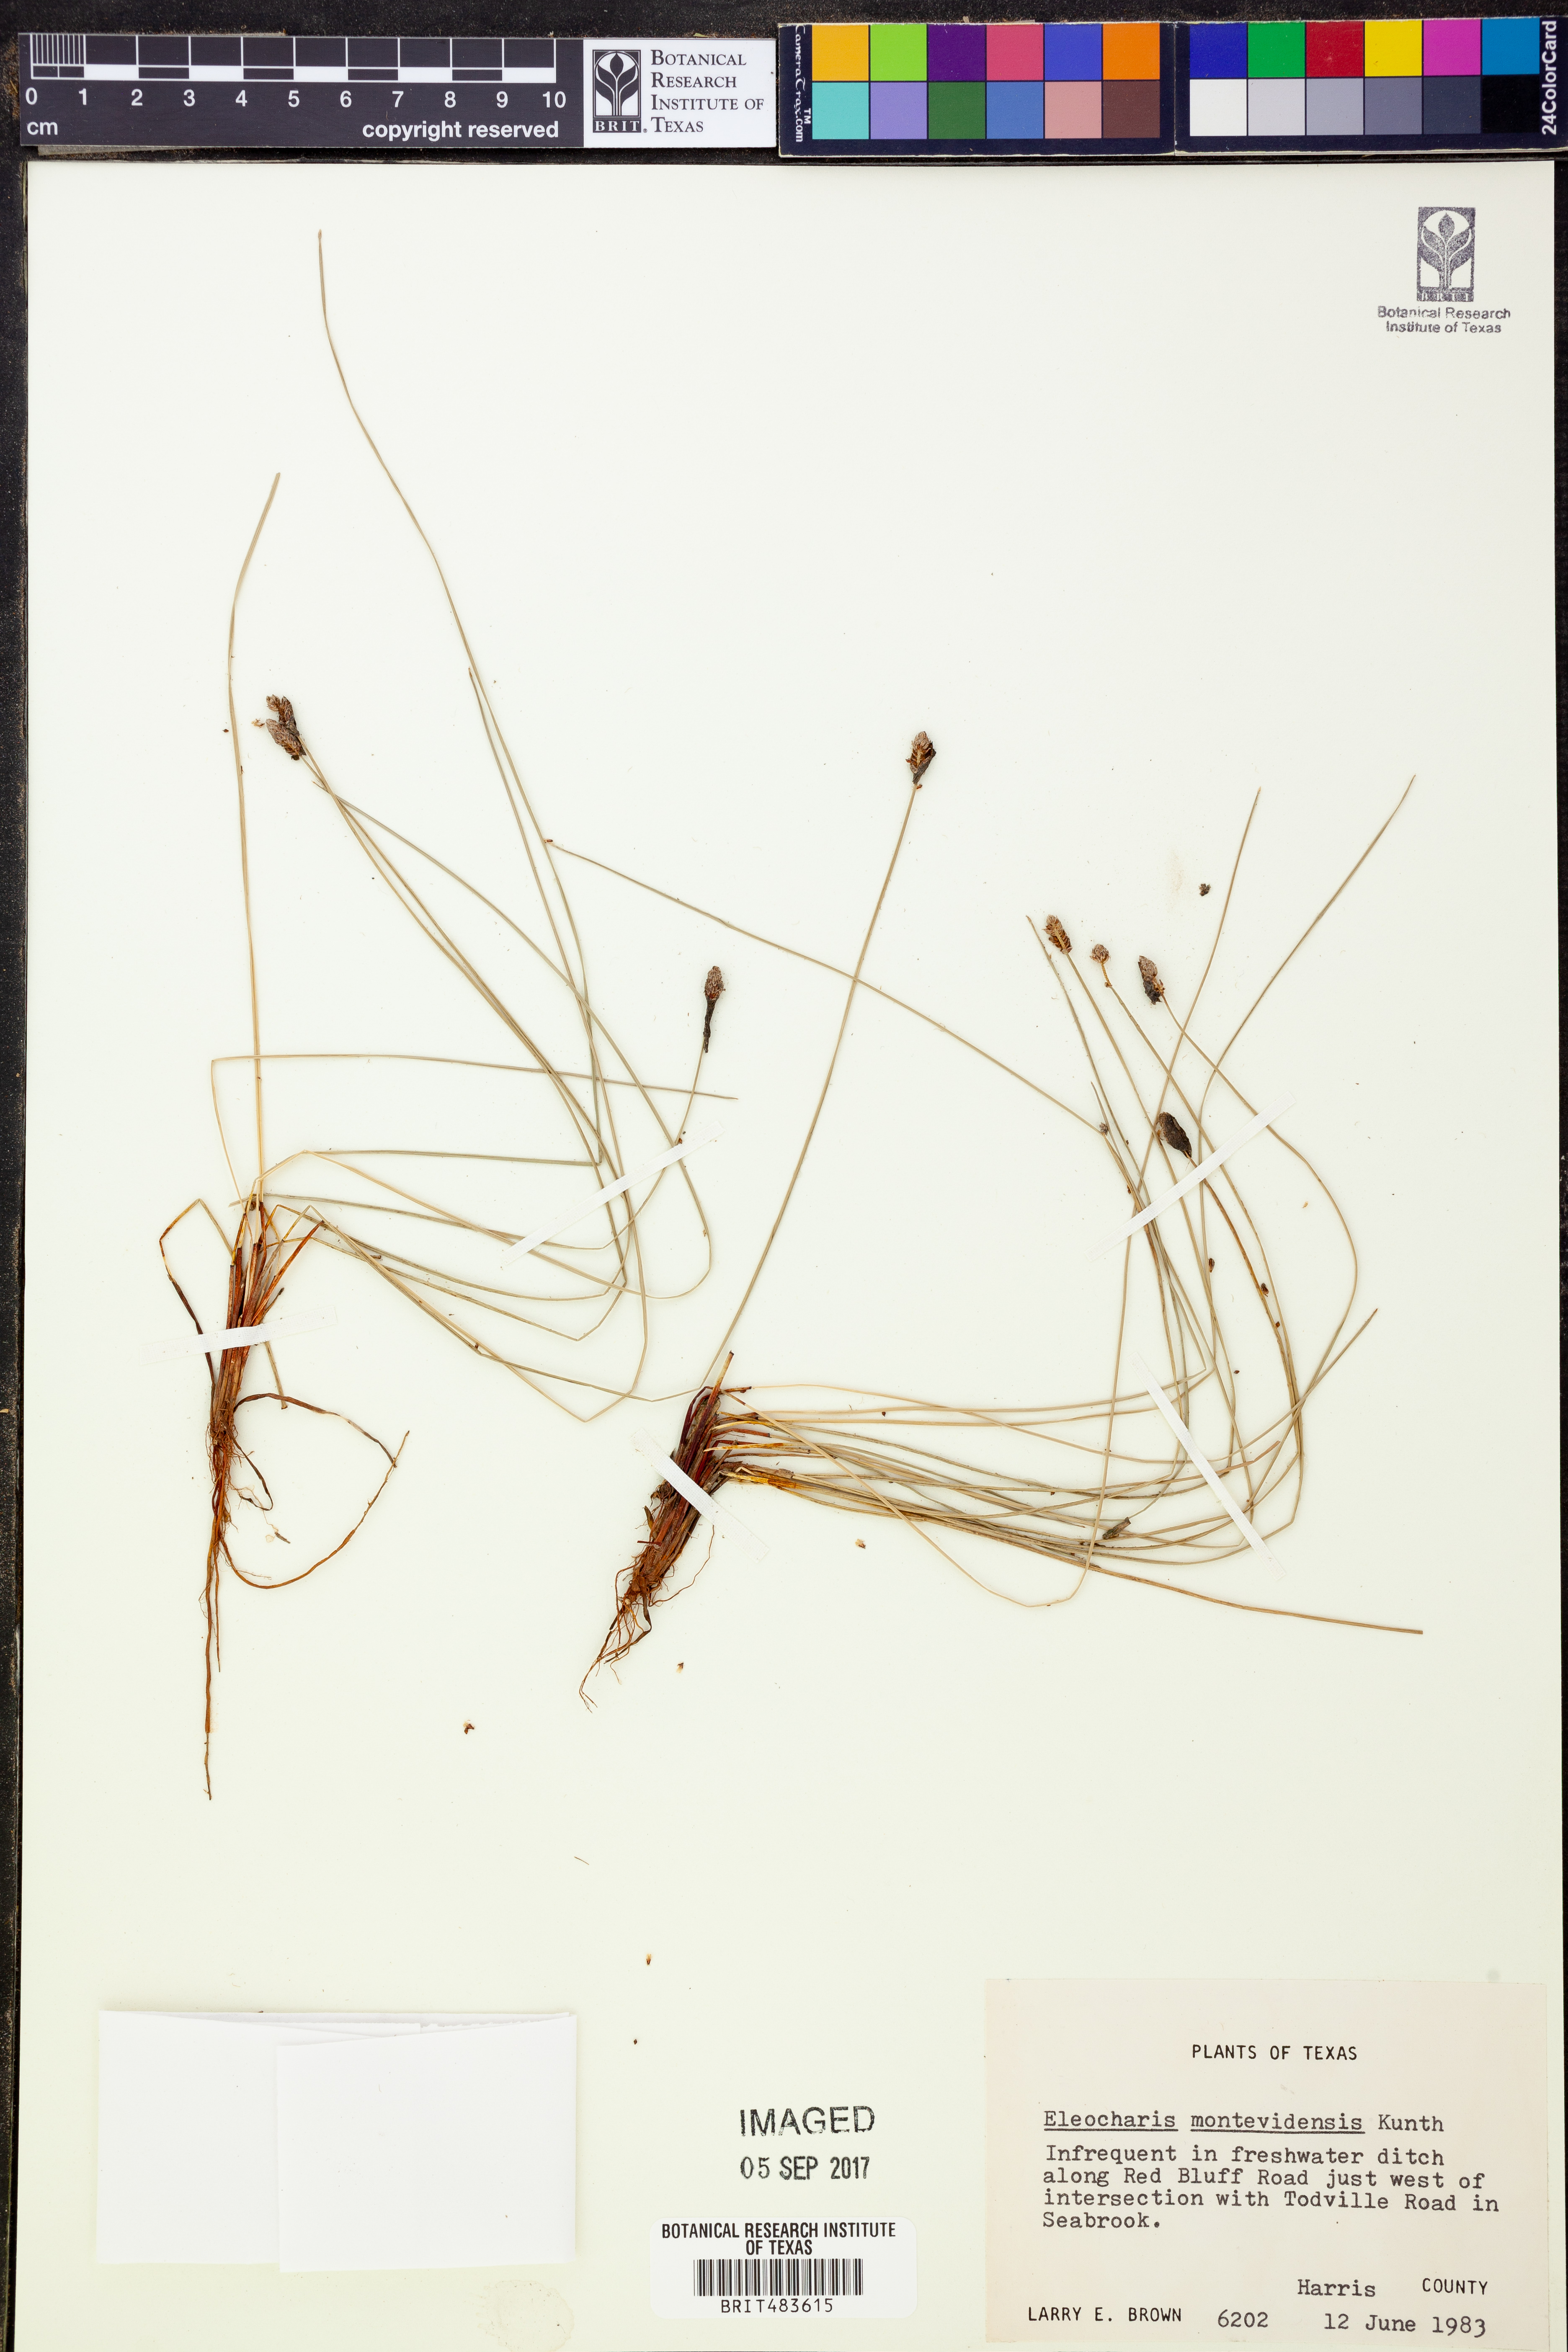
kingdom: Plantae
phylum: Tracheophyta
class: Liliopsida
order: Poales
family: Cyperaceae
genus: Eleocharis
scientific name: Eleocharis montevidensis
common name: Sand spike-rush
